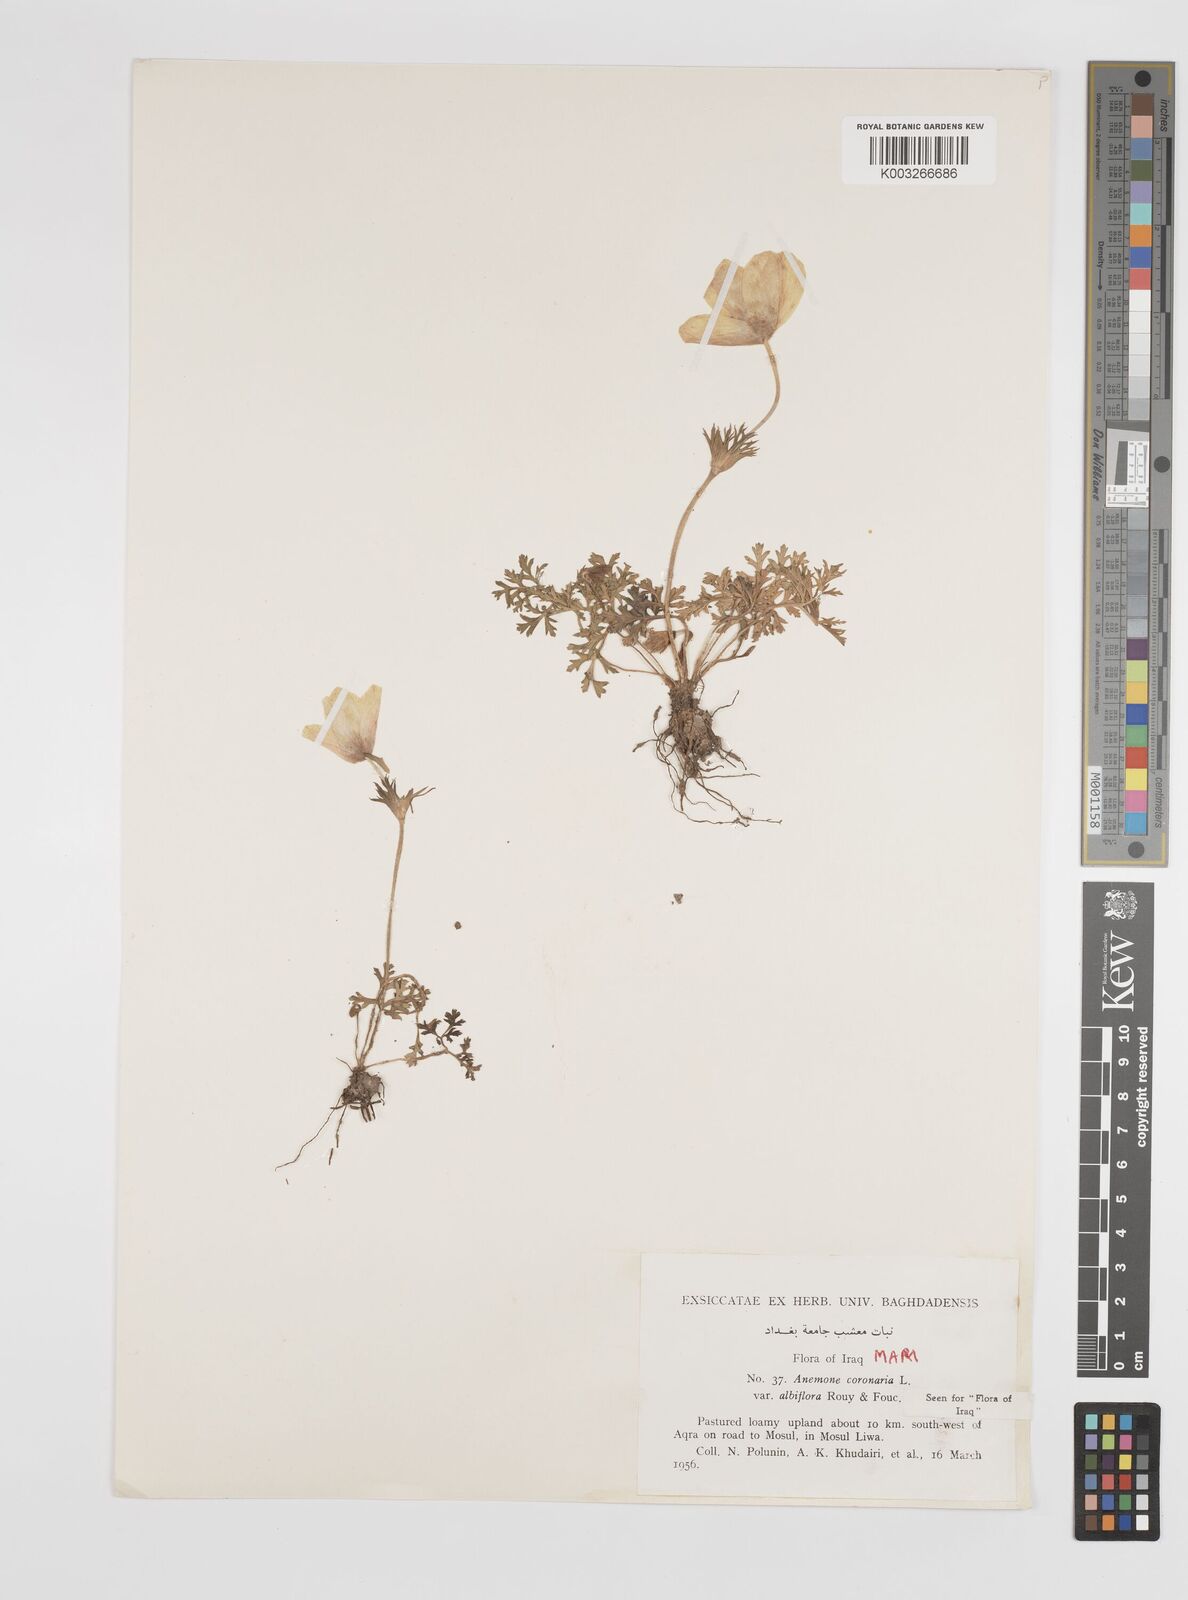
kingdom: Plantae
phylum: Tracheophyta
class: Magnoliopsida
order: Ranunculales
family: Ranunculaceae
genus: Anemone
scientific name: Anemone coronaria
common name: Poppy anemone
